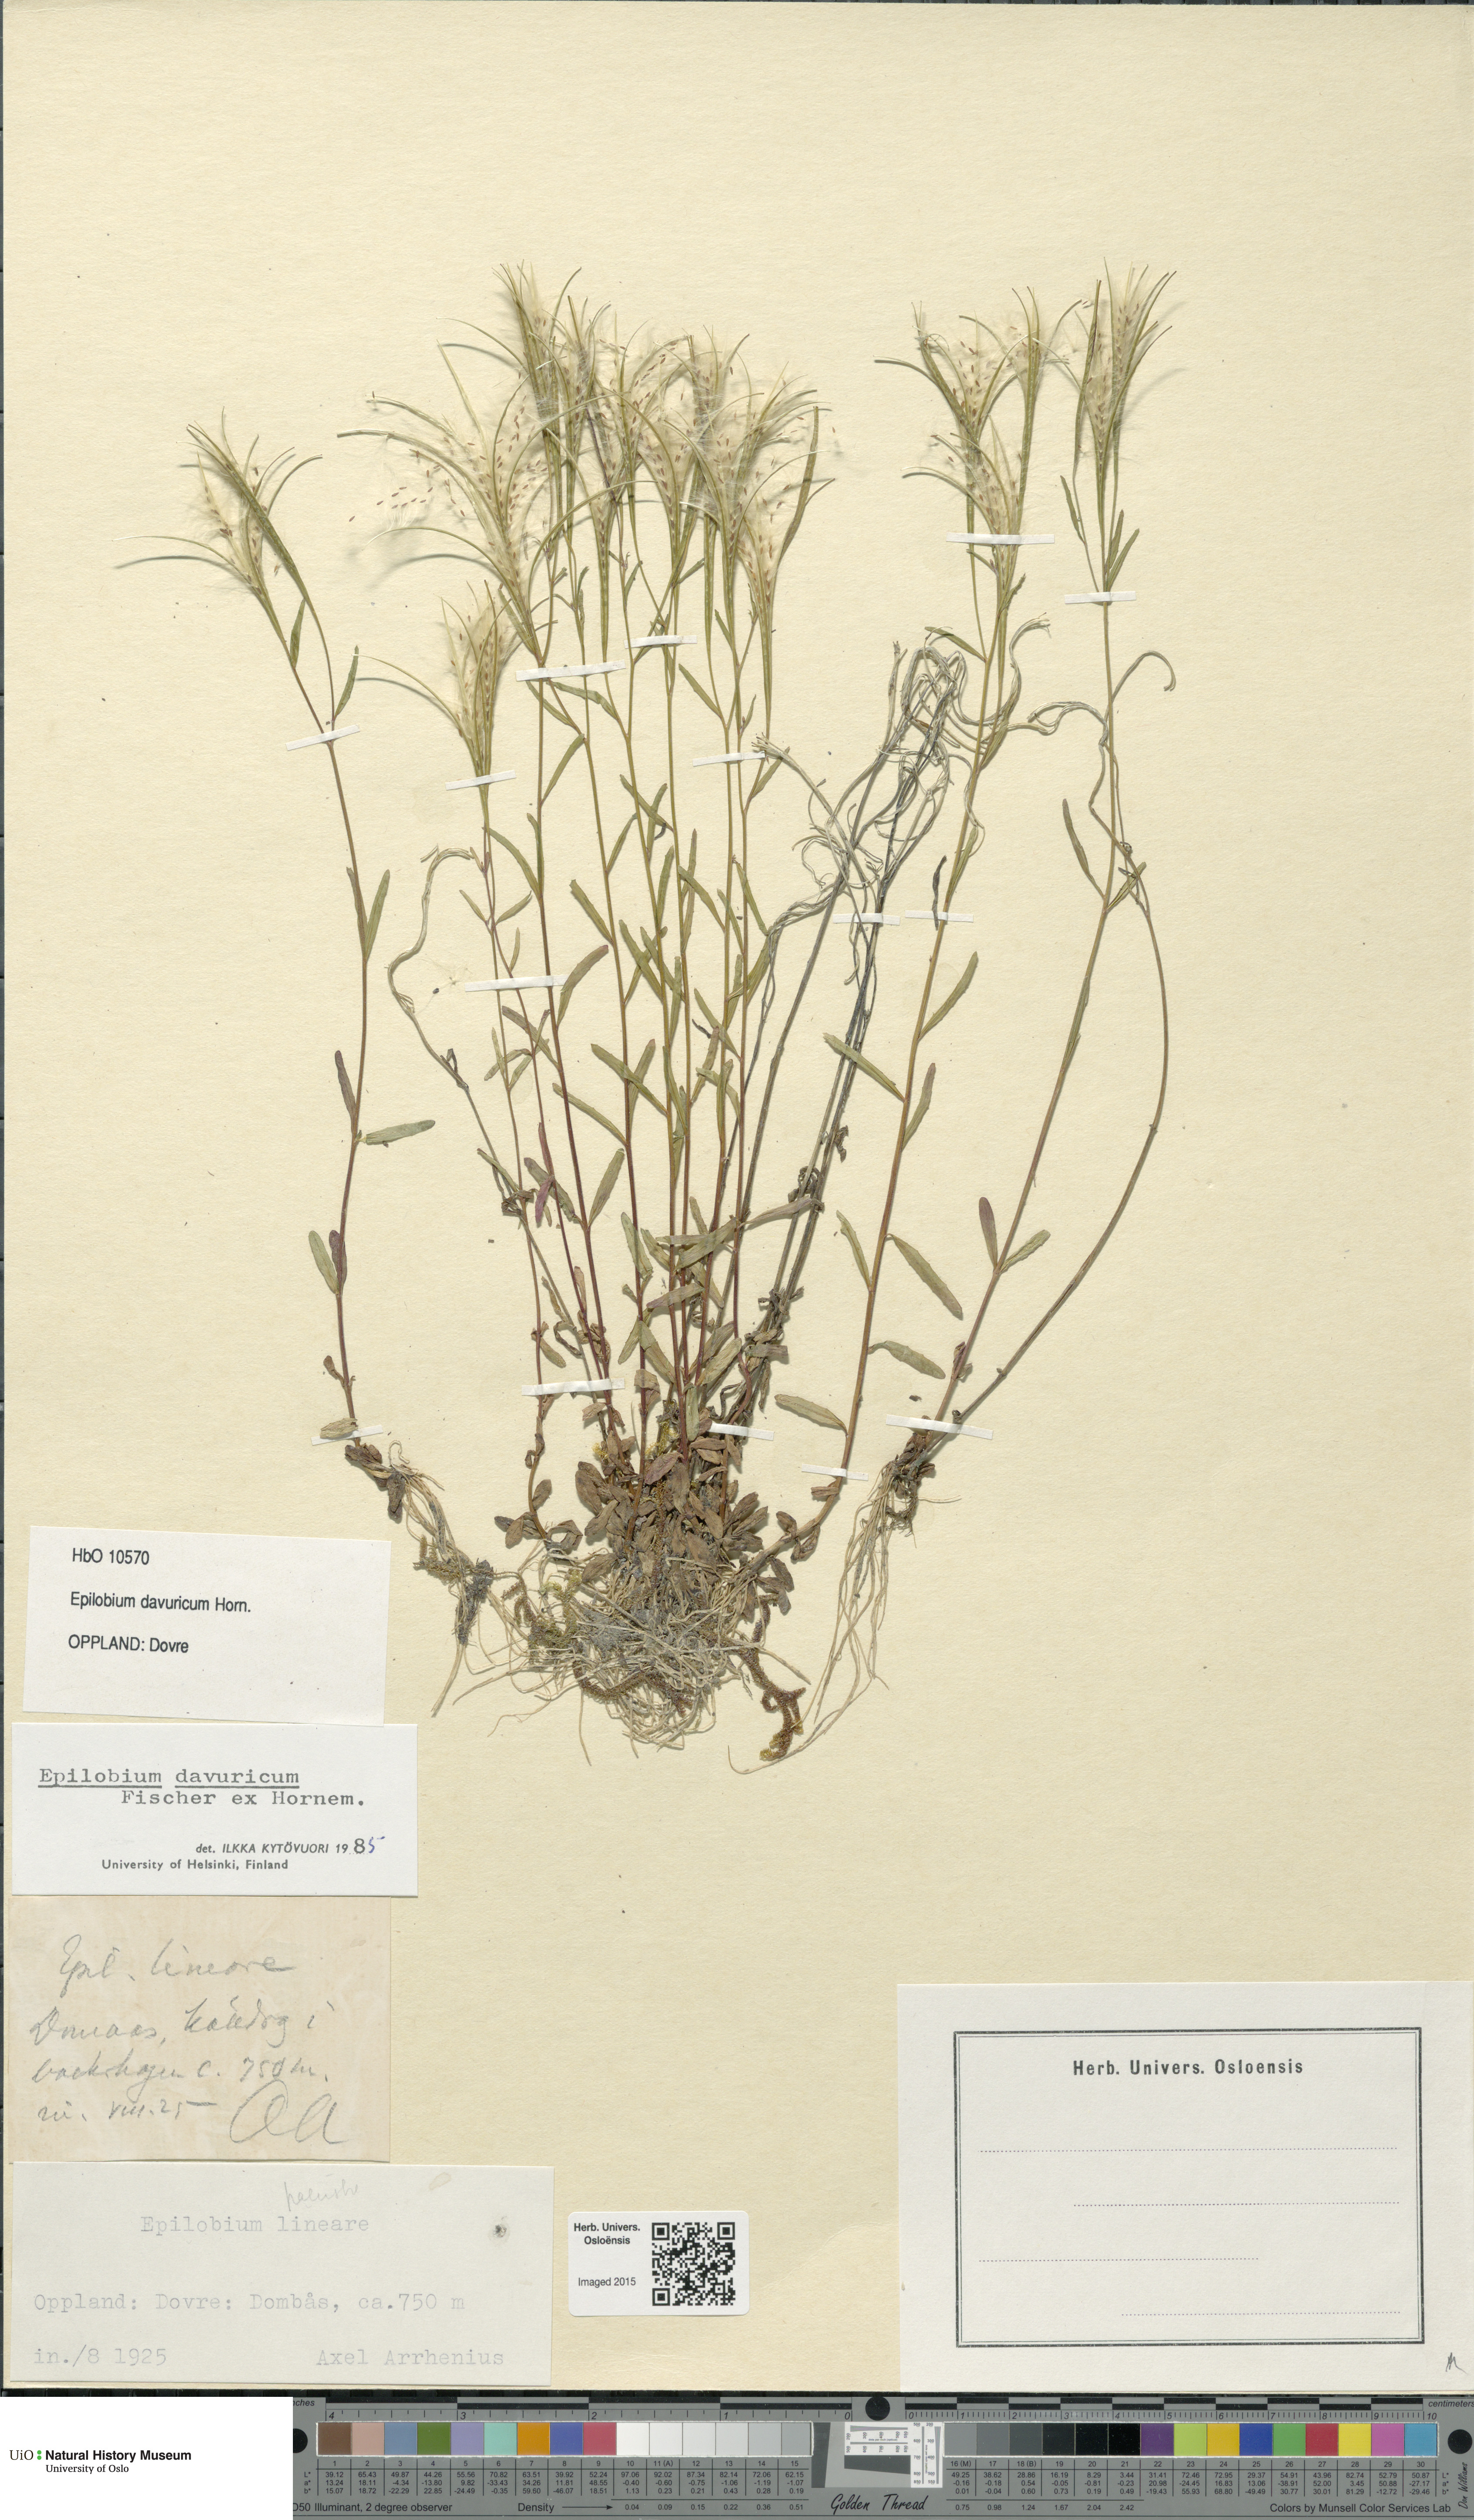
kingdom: Plantae
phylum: Tracheophyta
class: Magnoliopsida
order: Myrtales
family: Onagraceae
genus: Epilobium
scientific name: Epilobium davuricum
